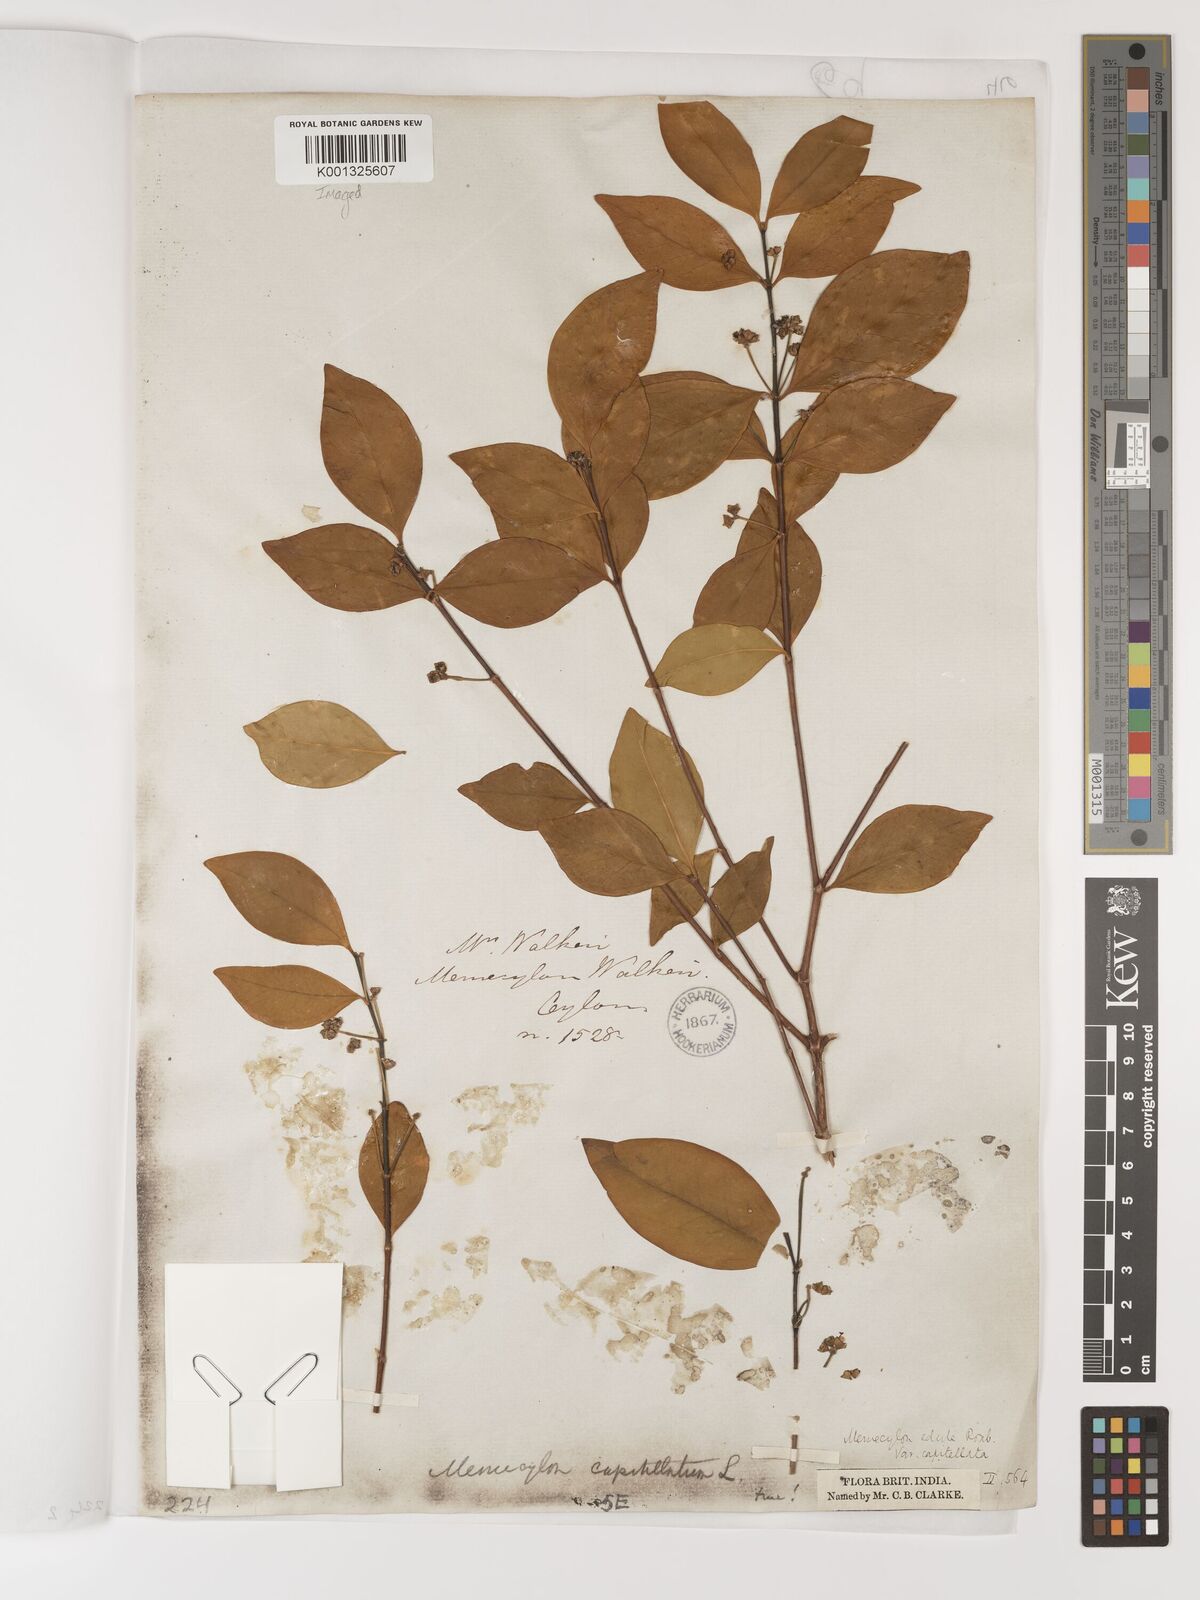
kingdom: Plantae
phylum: Tracheophyta
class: Magnoliopsida
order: Myrtales
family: Melastomataceae
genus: Memecylon
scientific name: Memecylon capitellatum
